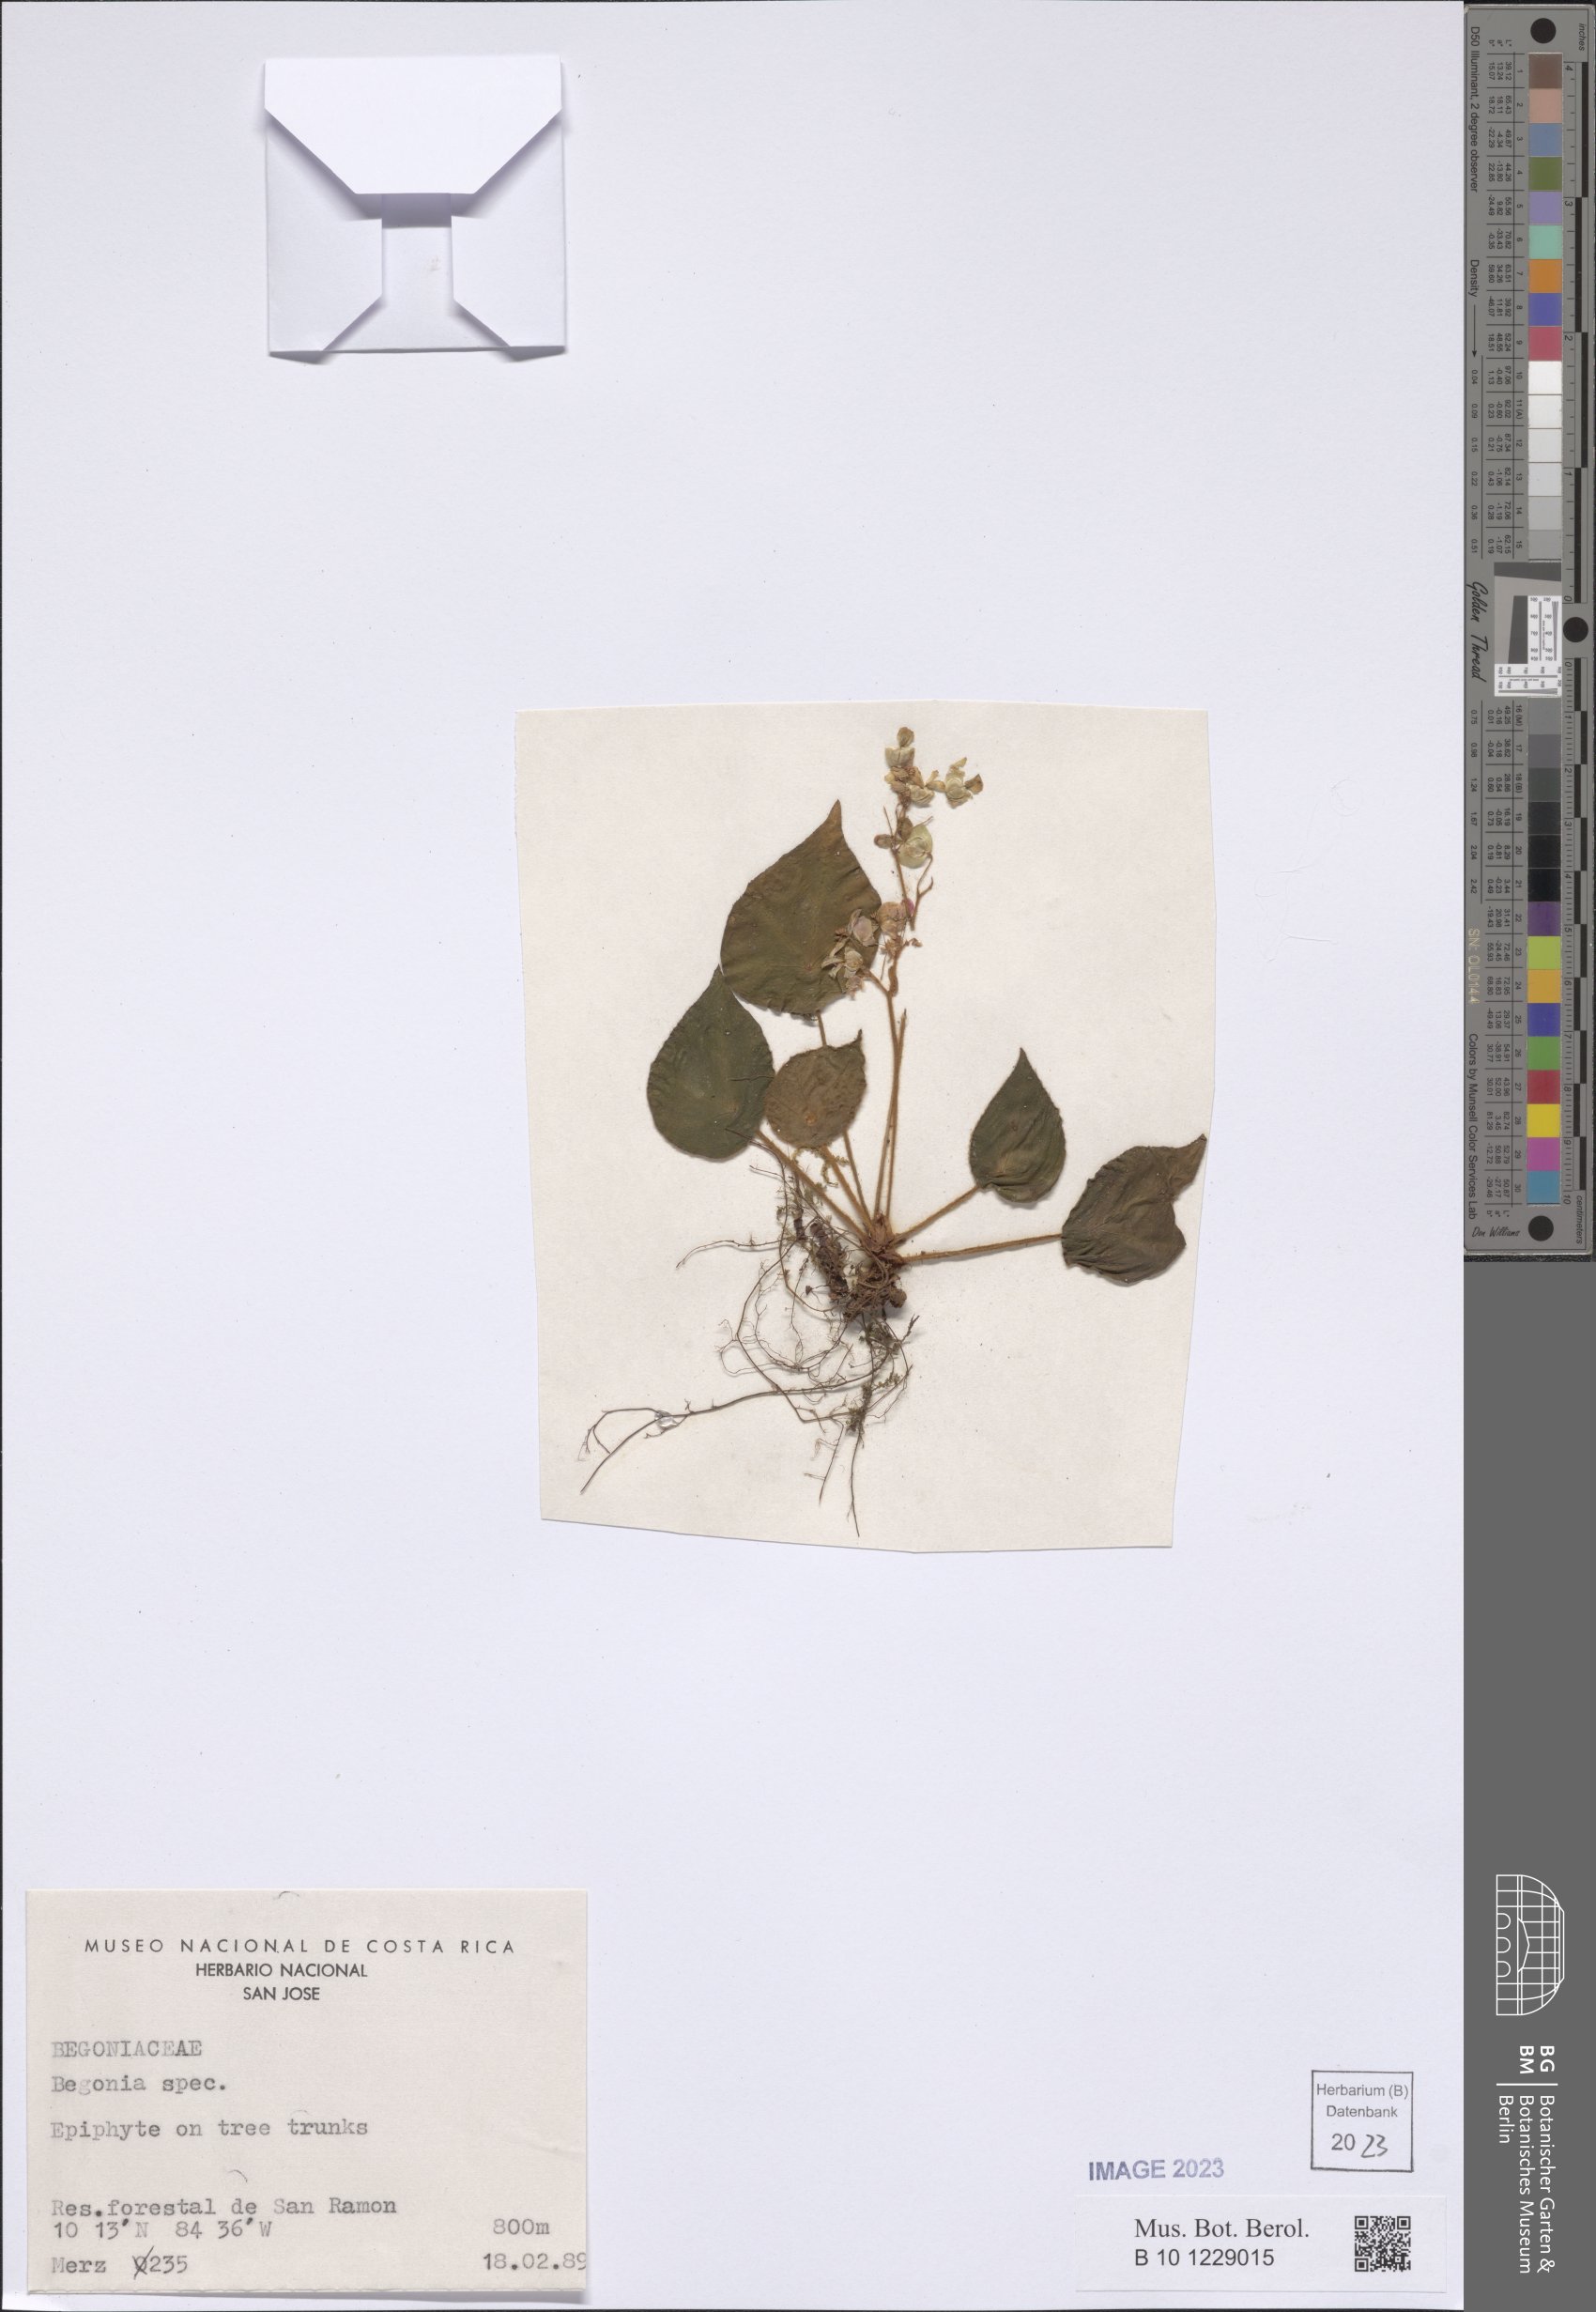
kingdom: Plantae
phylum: Tracheophyta
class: Magnoliopsida
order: Cucurbitales
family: Begoniaceae
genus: Begonia
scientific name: Begonia
